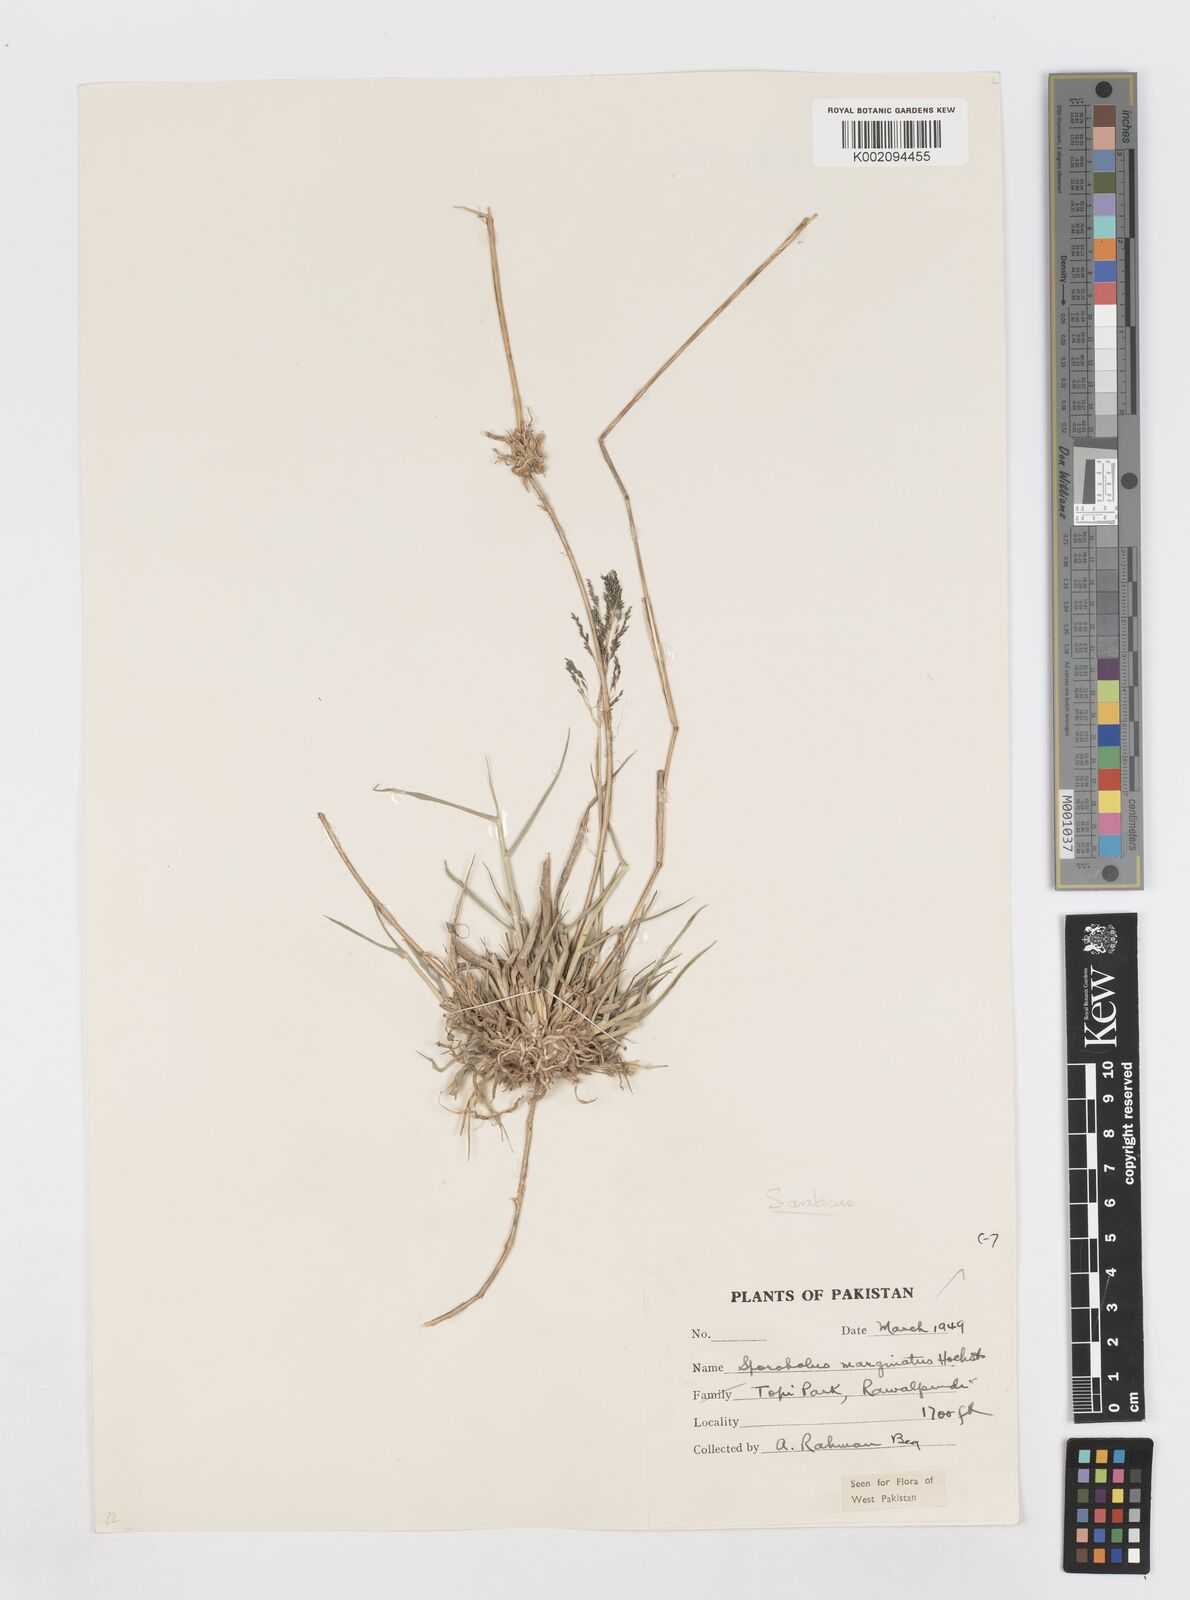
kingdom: Plantae
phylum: Tracheophyta
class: Liliopsida
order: Poales
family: Poaceae
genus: Sporobolus
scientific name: Sporobolus ioclados
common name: Pan dropseed
